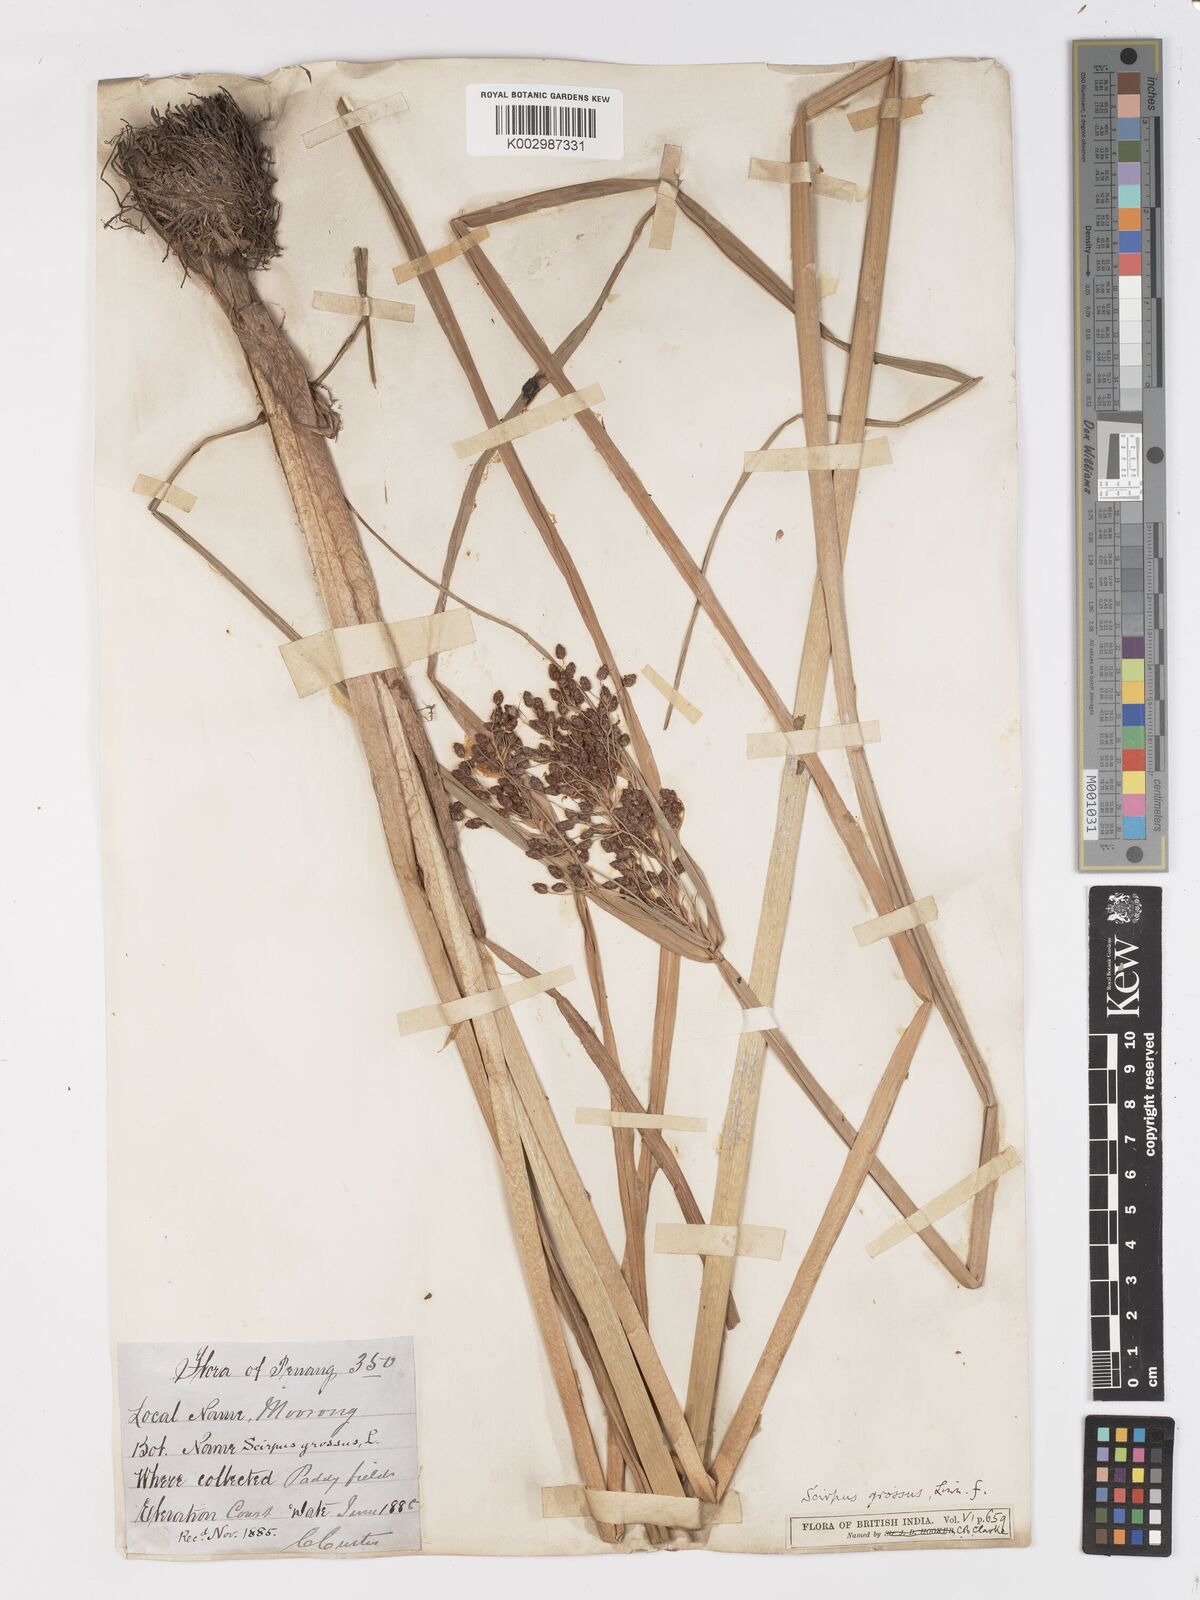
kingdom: Plantae
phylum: Tracheophyta
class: Liliopsida
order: Poales
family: Cyperaceae
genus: Actinoscirpus
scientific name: Actinoscirpus grossus
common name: Giant bur rush
